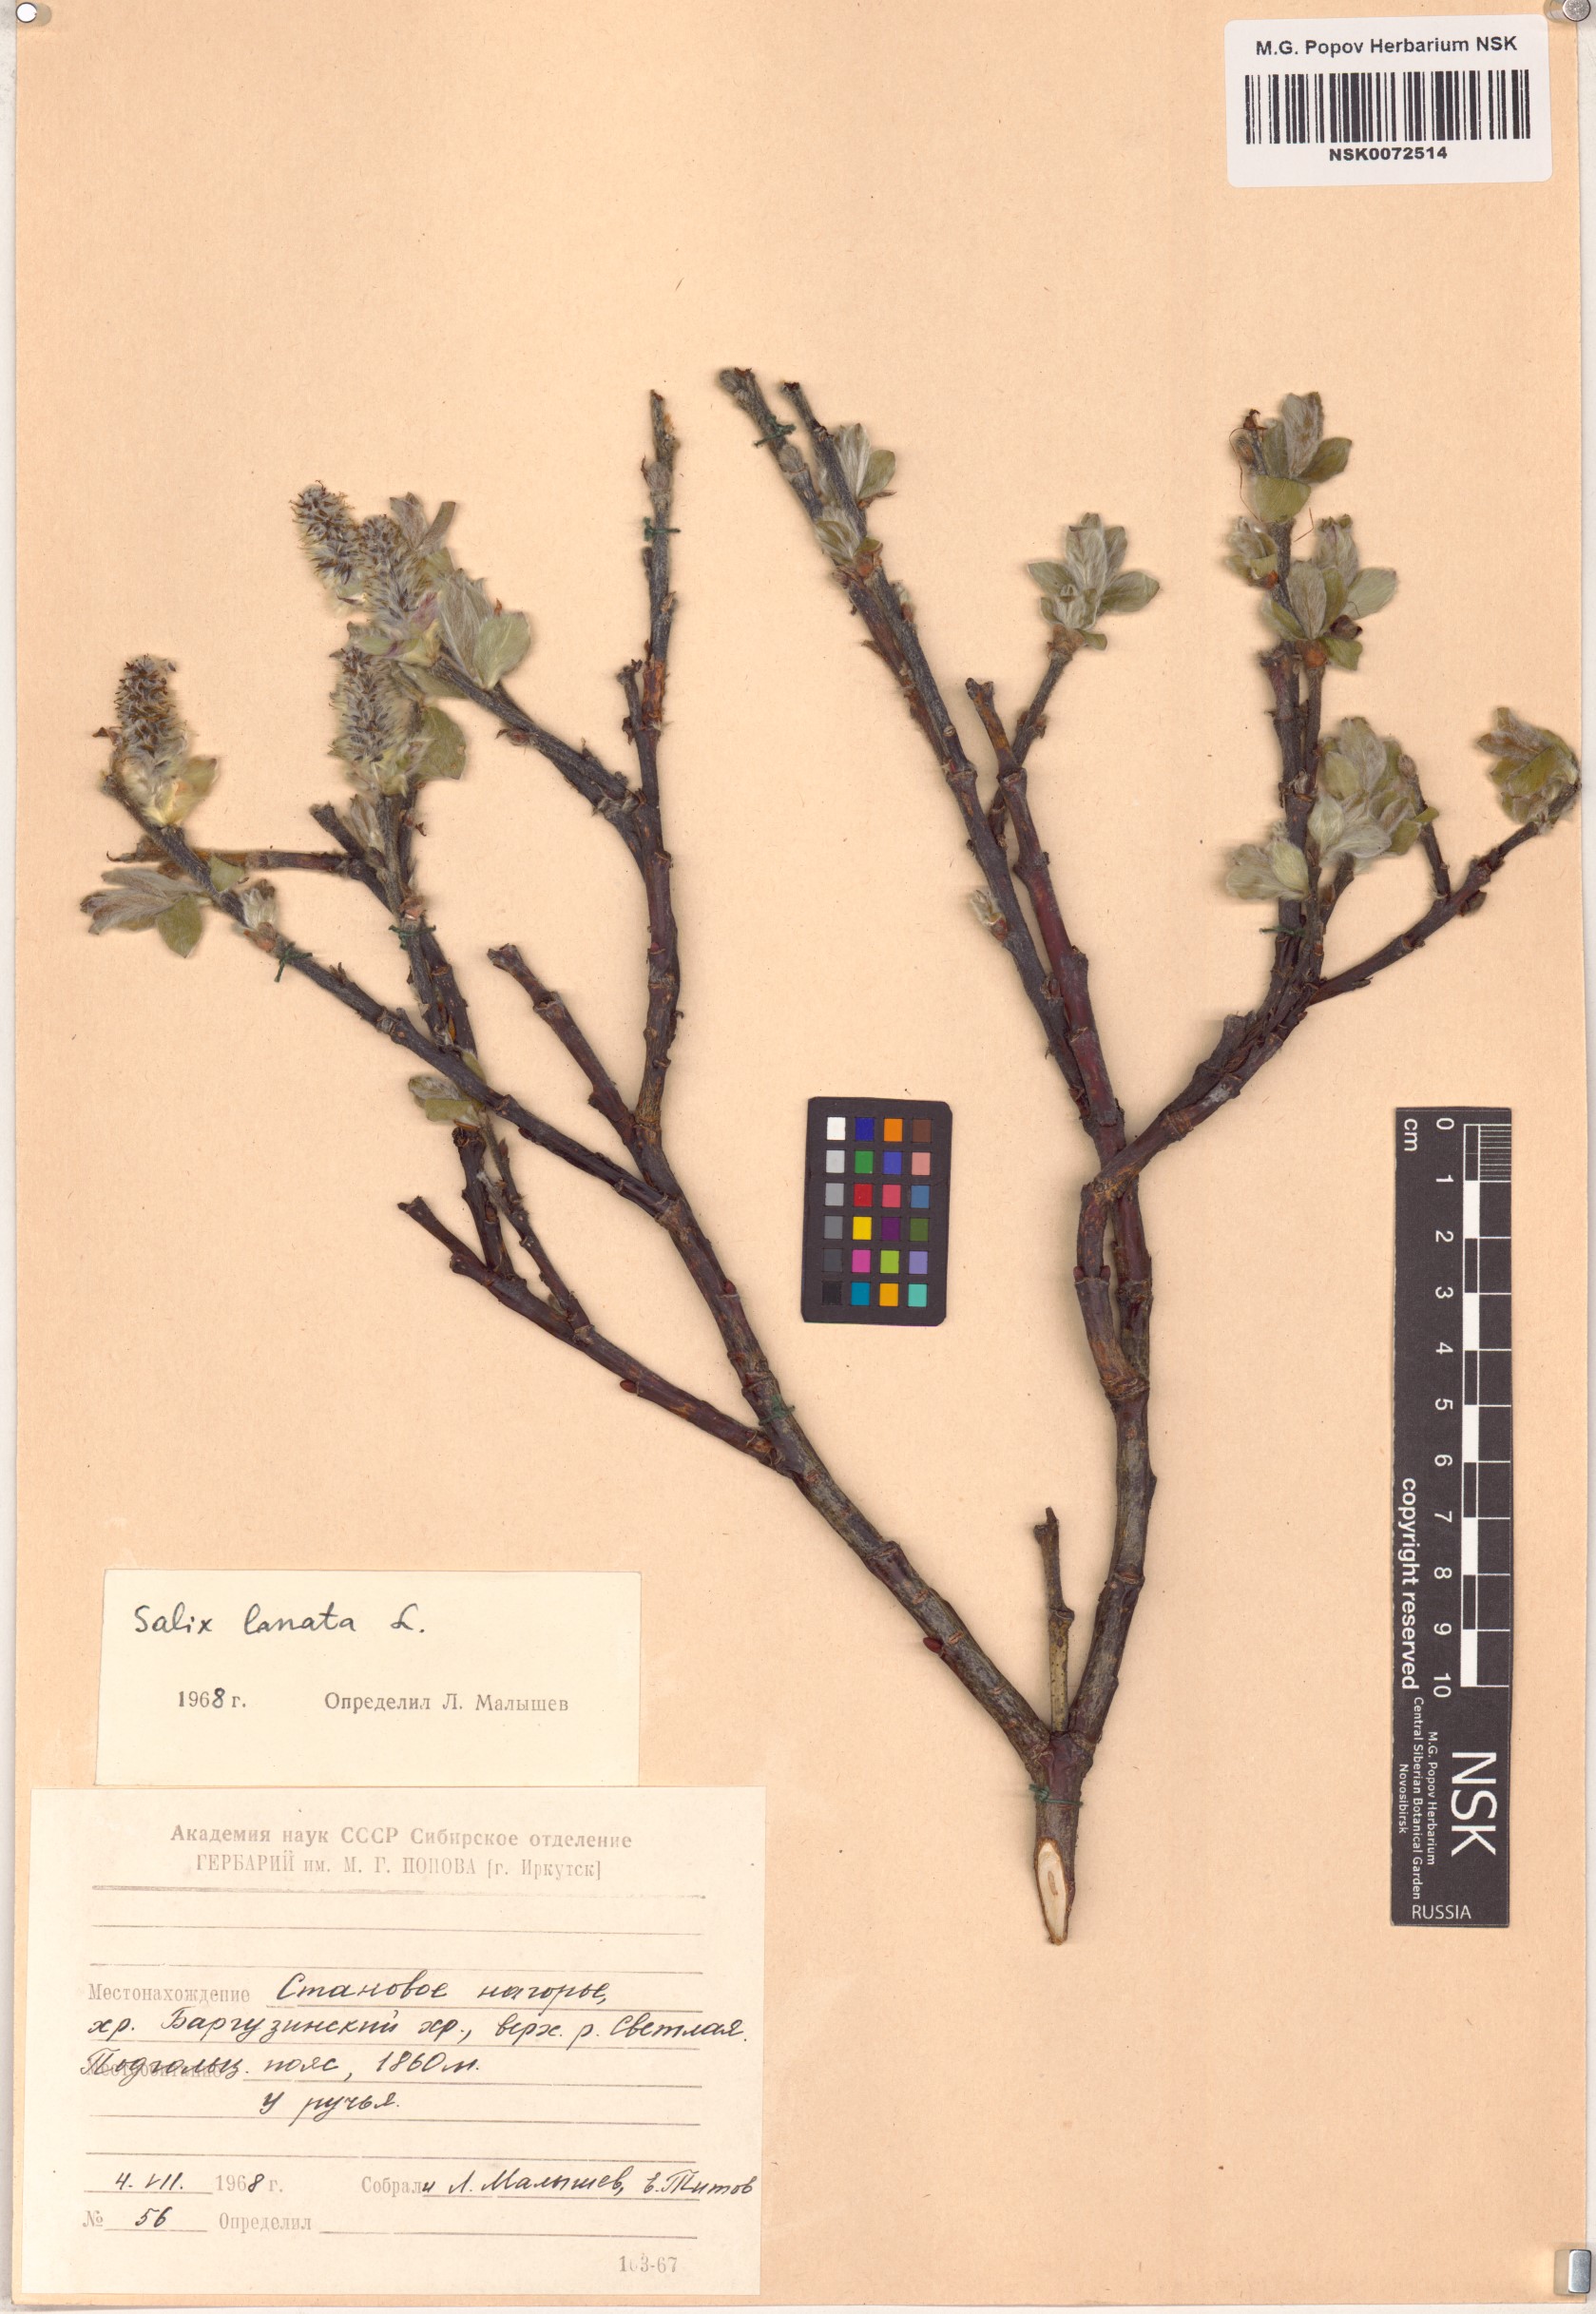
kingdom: Plantae
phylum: Tracheophyta
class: Magnoliopsida
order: Malpighiales
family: Salicaceae
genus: Salix
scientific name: Salix lanata
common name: Woolly willow
